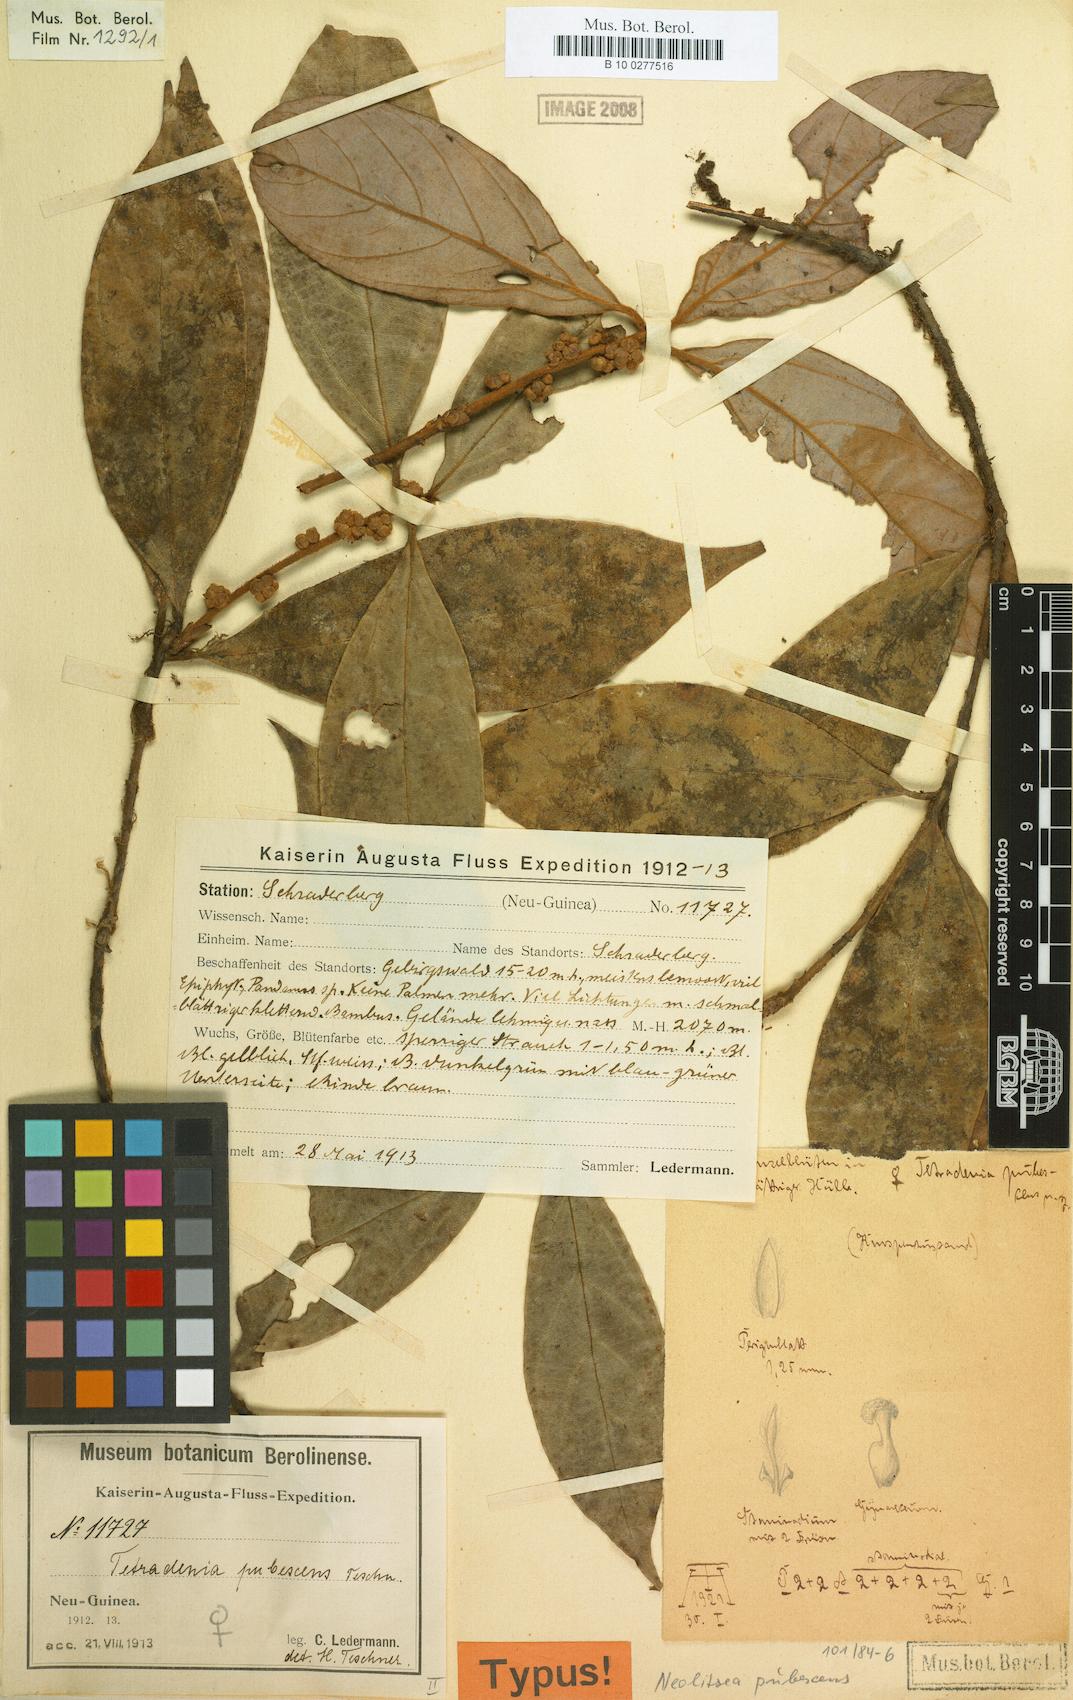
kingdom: Plantae
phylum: Tracheophyta
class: Magnoliopsida
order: Laurales
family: Lauraceae
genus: Neolitsea
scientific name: Neolitsea pubescens
